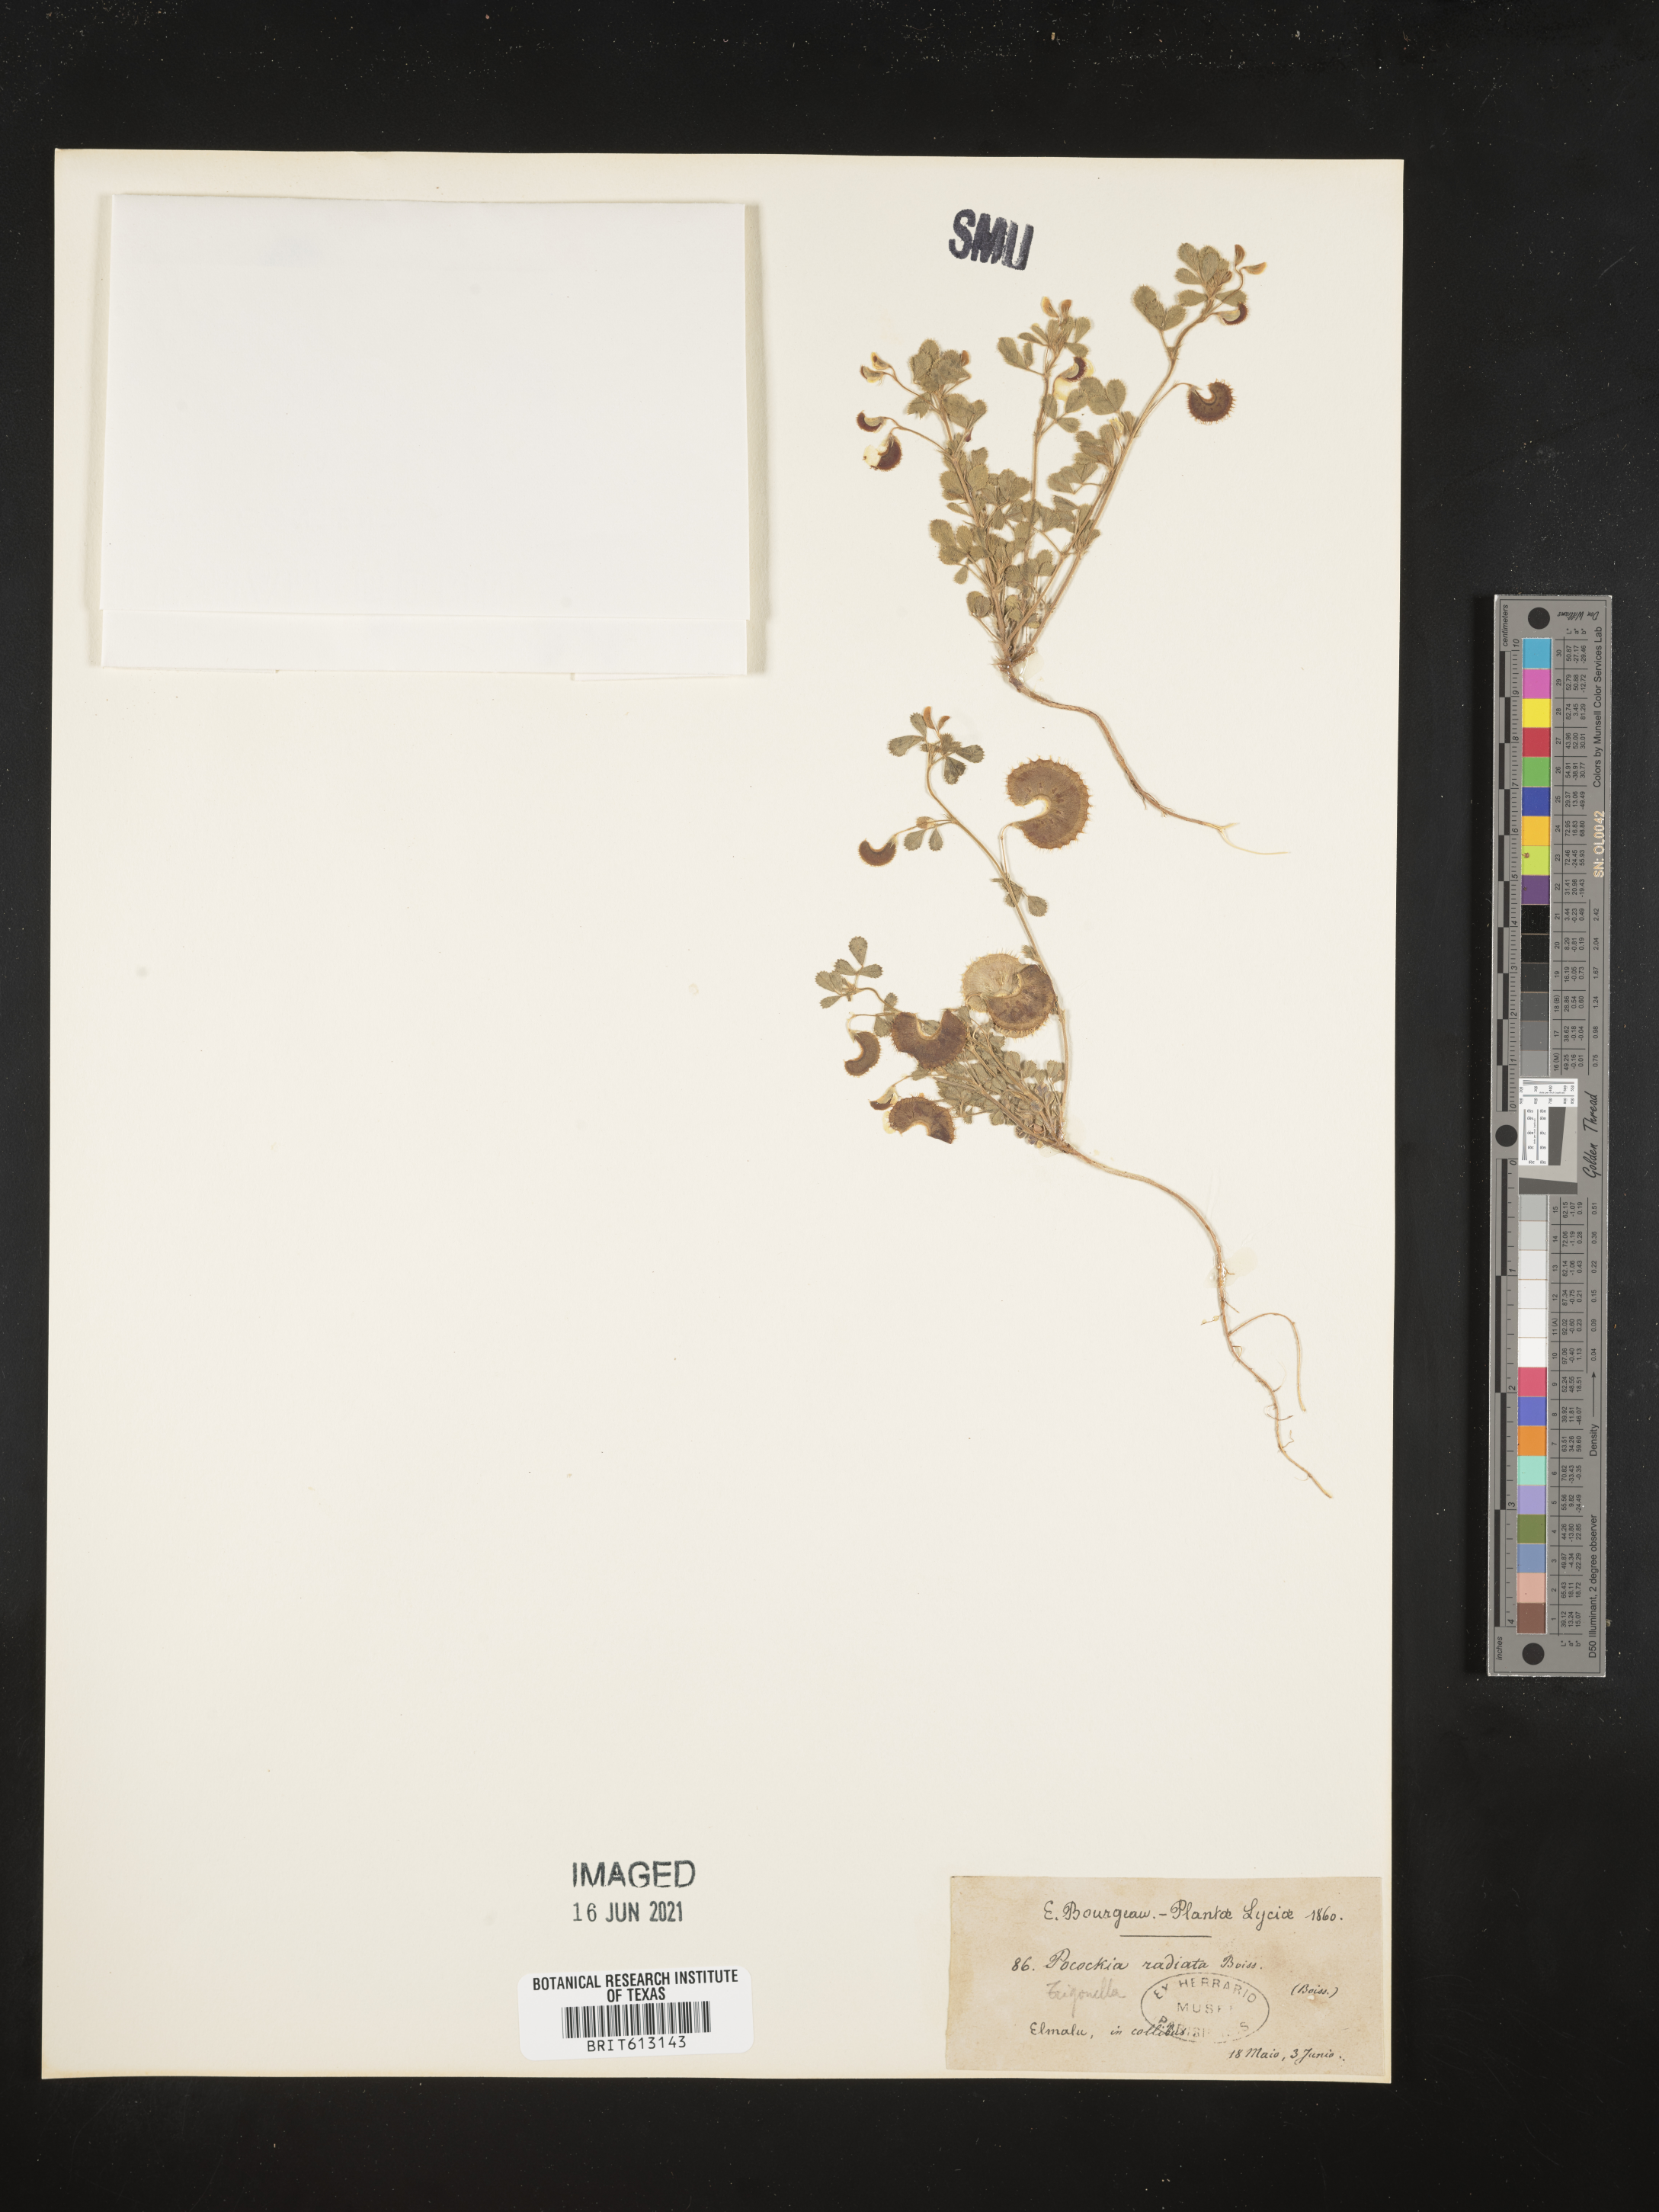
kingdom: Plantae
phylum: Tracheophyta
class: Magnoliopsida
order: Fabales
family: Fabaceae
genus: Medicago
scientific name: Medicago radiata
